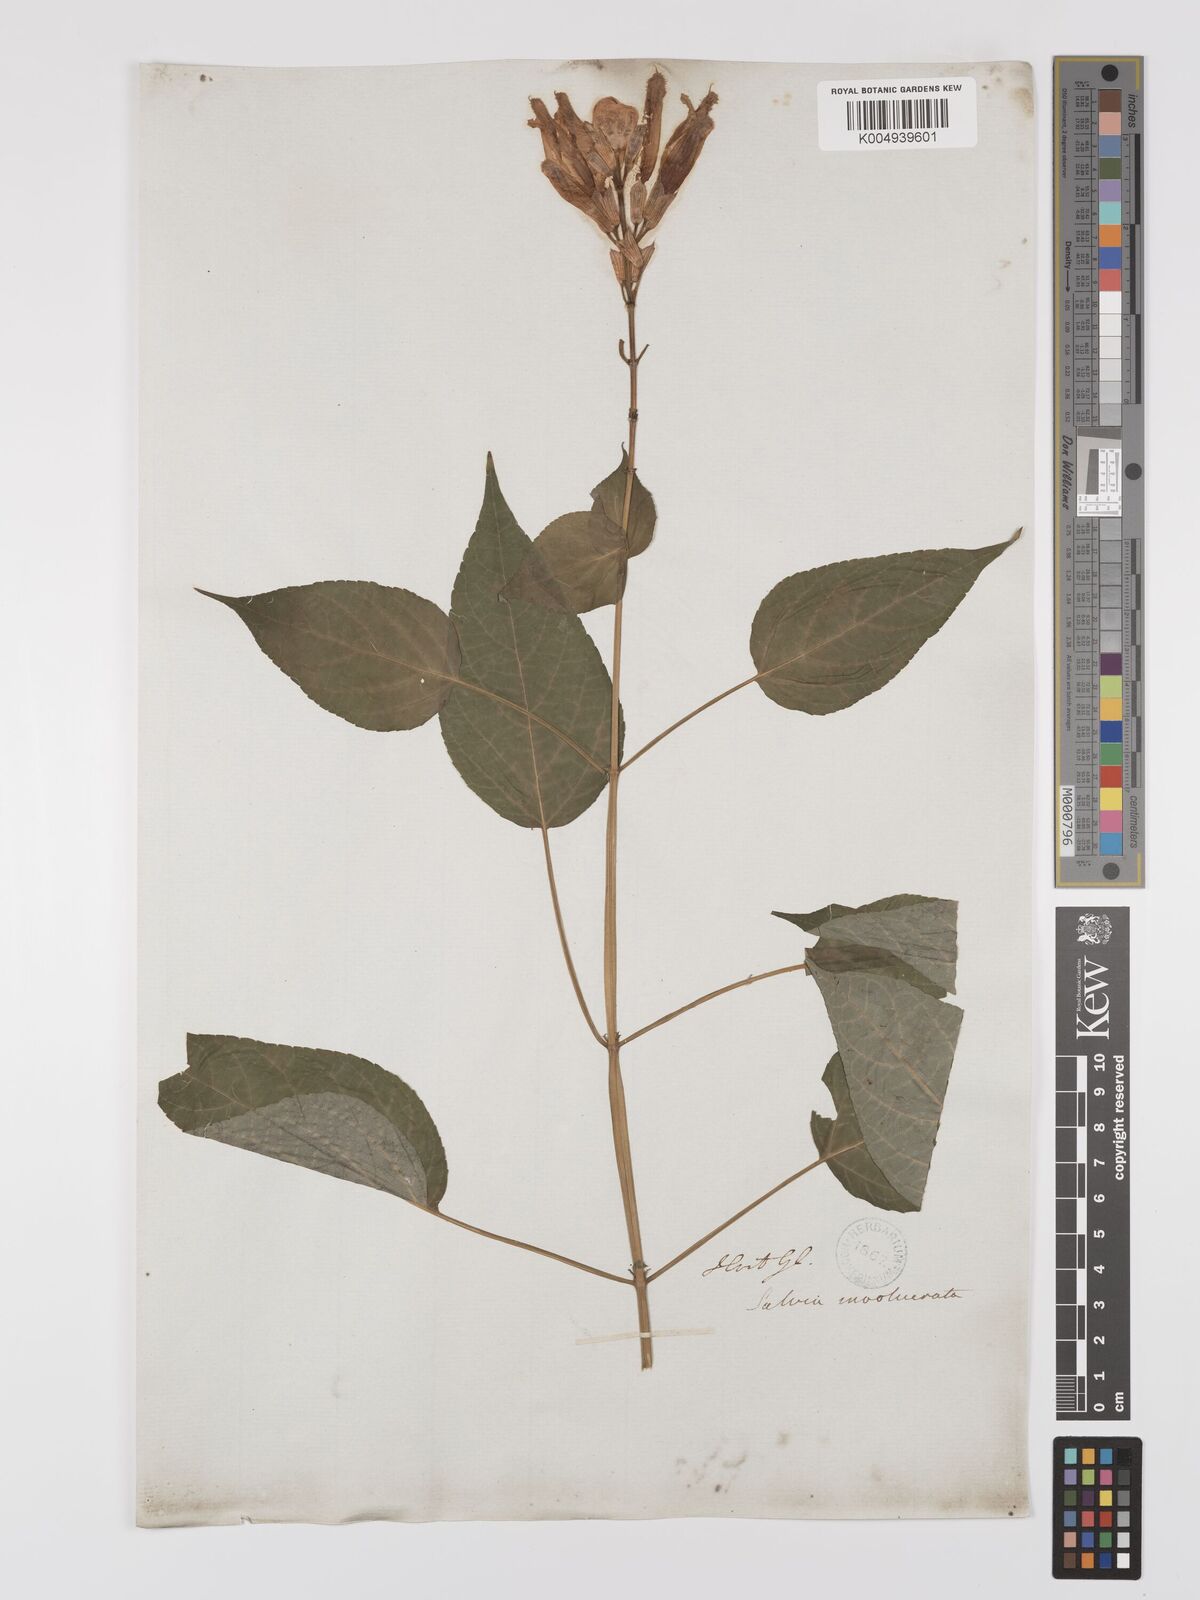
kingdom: Plantae
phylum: Tracheophyta
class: Magnoliopsida
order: Lamiales
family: Lamiaceae
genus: Salvia
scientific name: Salvia involucrata
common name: Roseleaf sage
